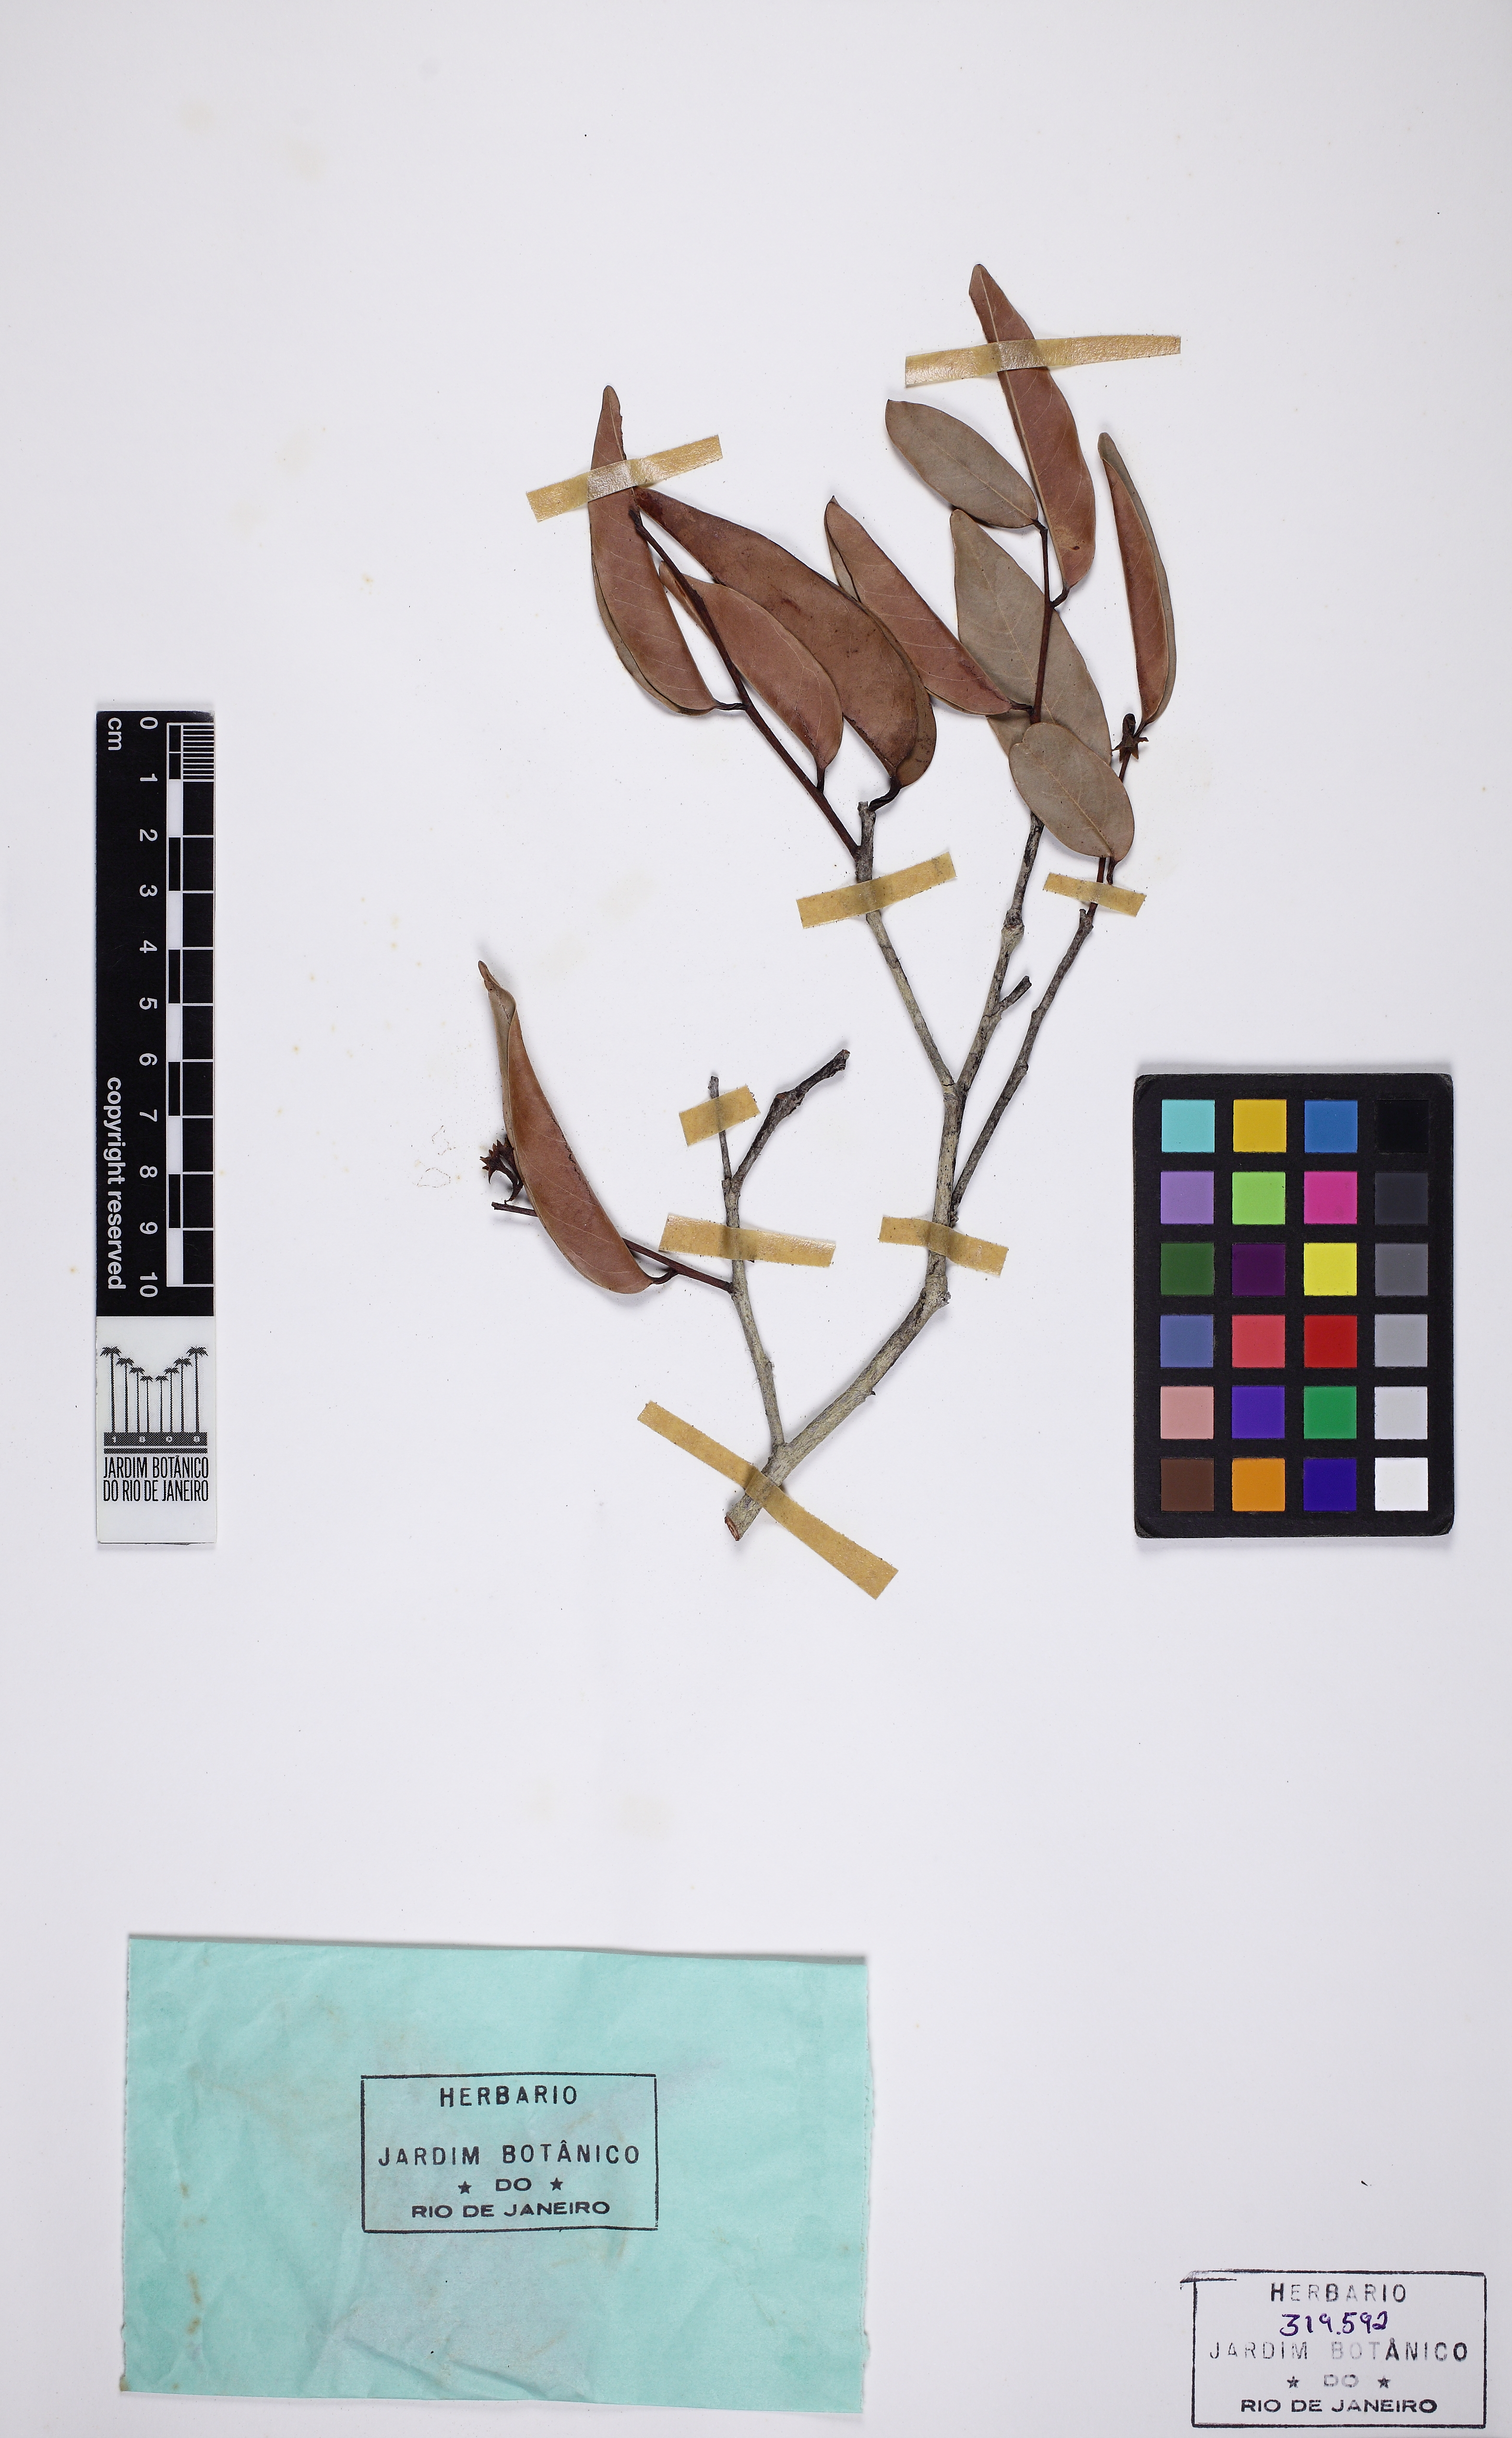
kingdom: Plantae
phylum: Tracheophyta
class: Magnoliopsida
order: Malpighiales
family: Calophyllaceae
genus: Caraipa
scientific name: Caraipa longisepala
